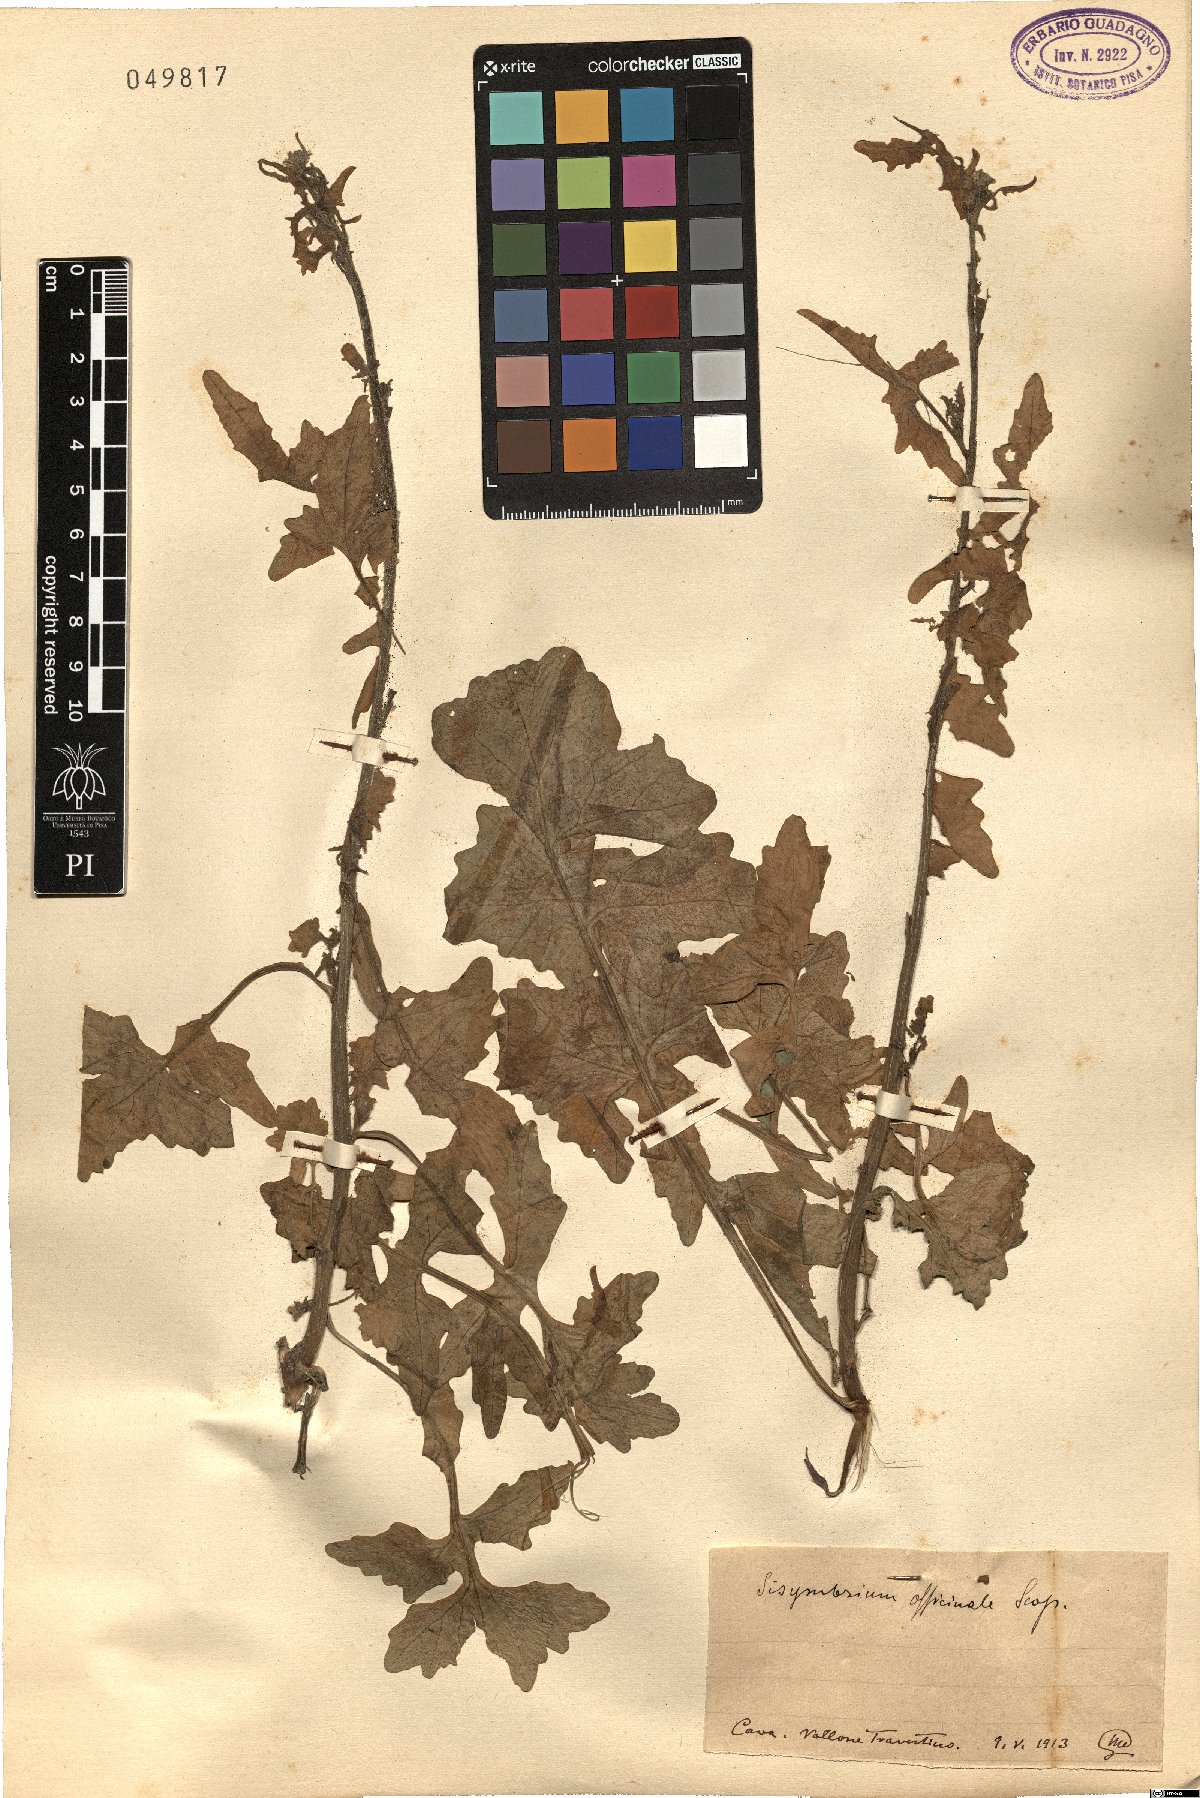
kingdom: Plantae
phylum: Tracheophyta
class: Magnoliopsida
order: Brassicales
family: Brassicaceae
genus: Sisymbrium
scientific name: Sisymbrium officinale
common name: Hedge mustard
